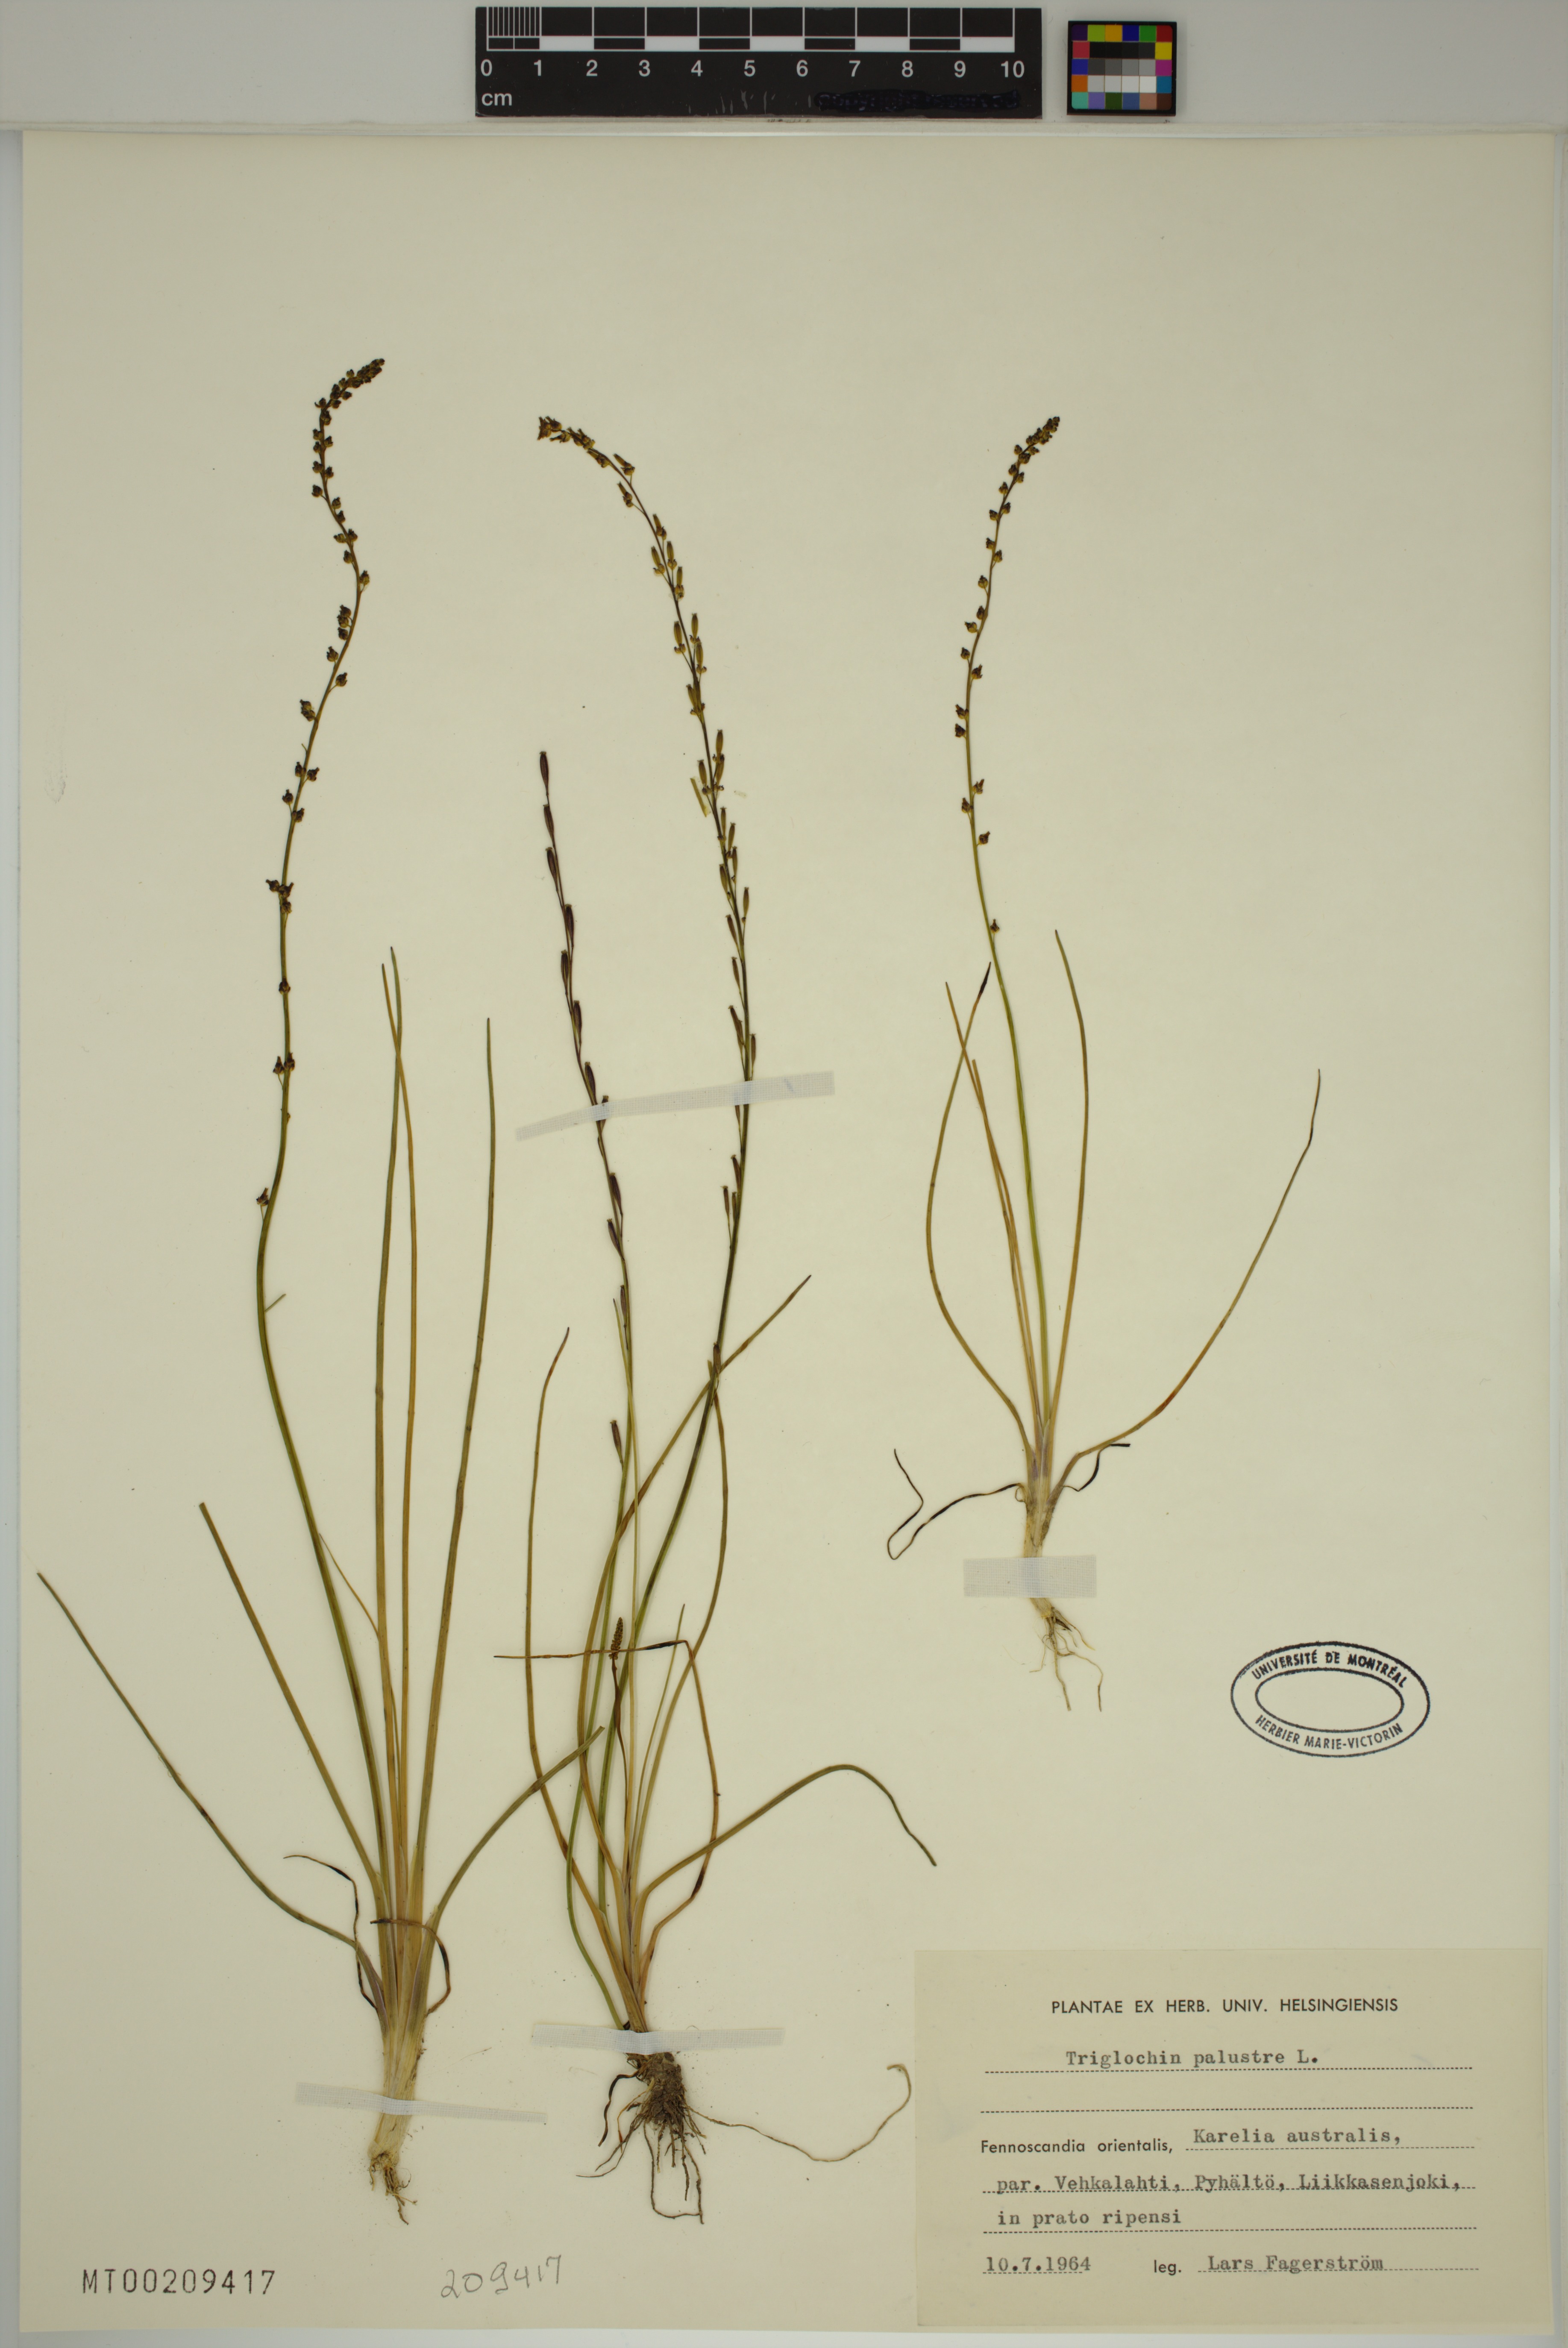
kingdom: Plantae
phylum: Tracheophyta
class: Liliopsida
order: Alismatales
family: Juncaginaceae
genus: Triglochin
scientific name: Triglochin palustris
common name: Marsh arrowgrass
